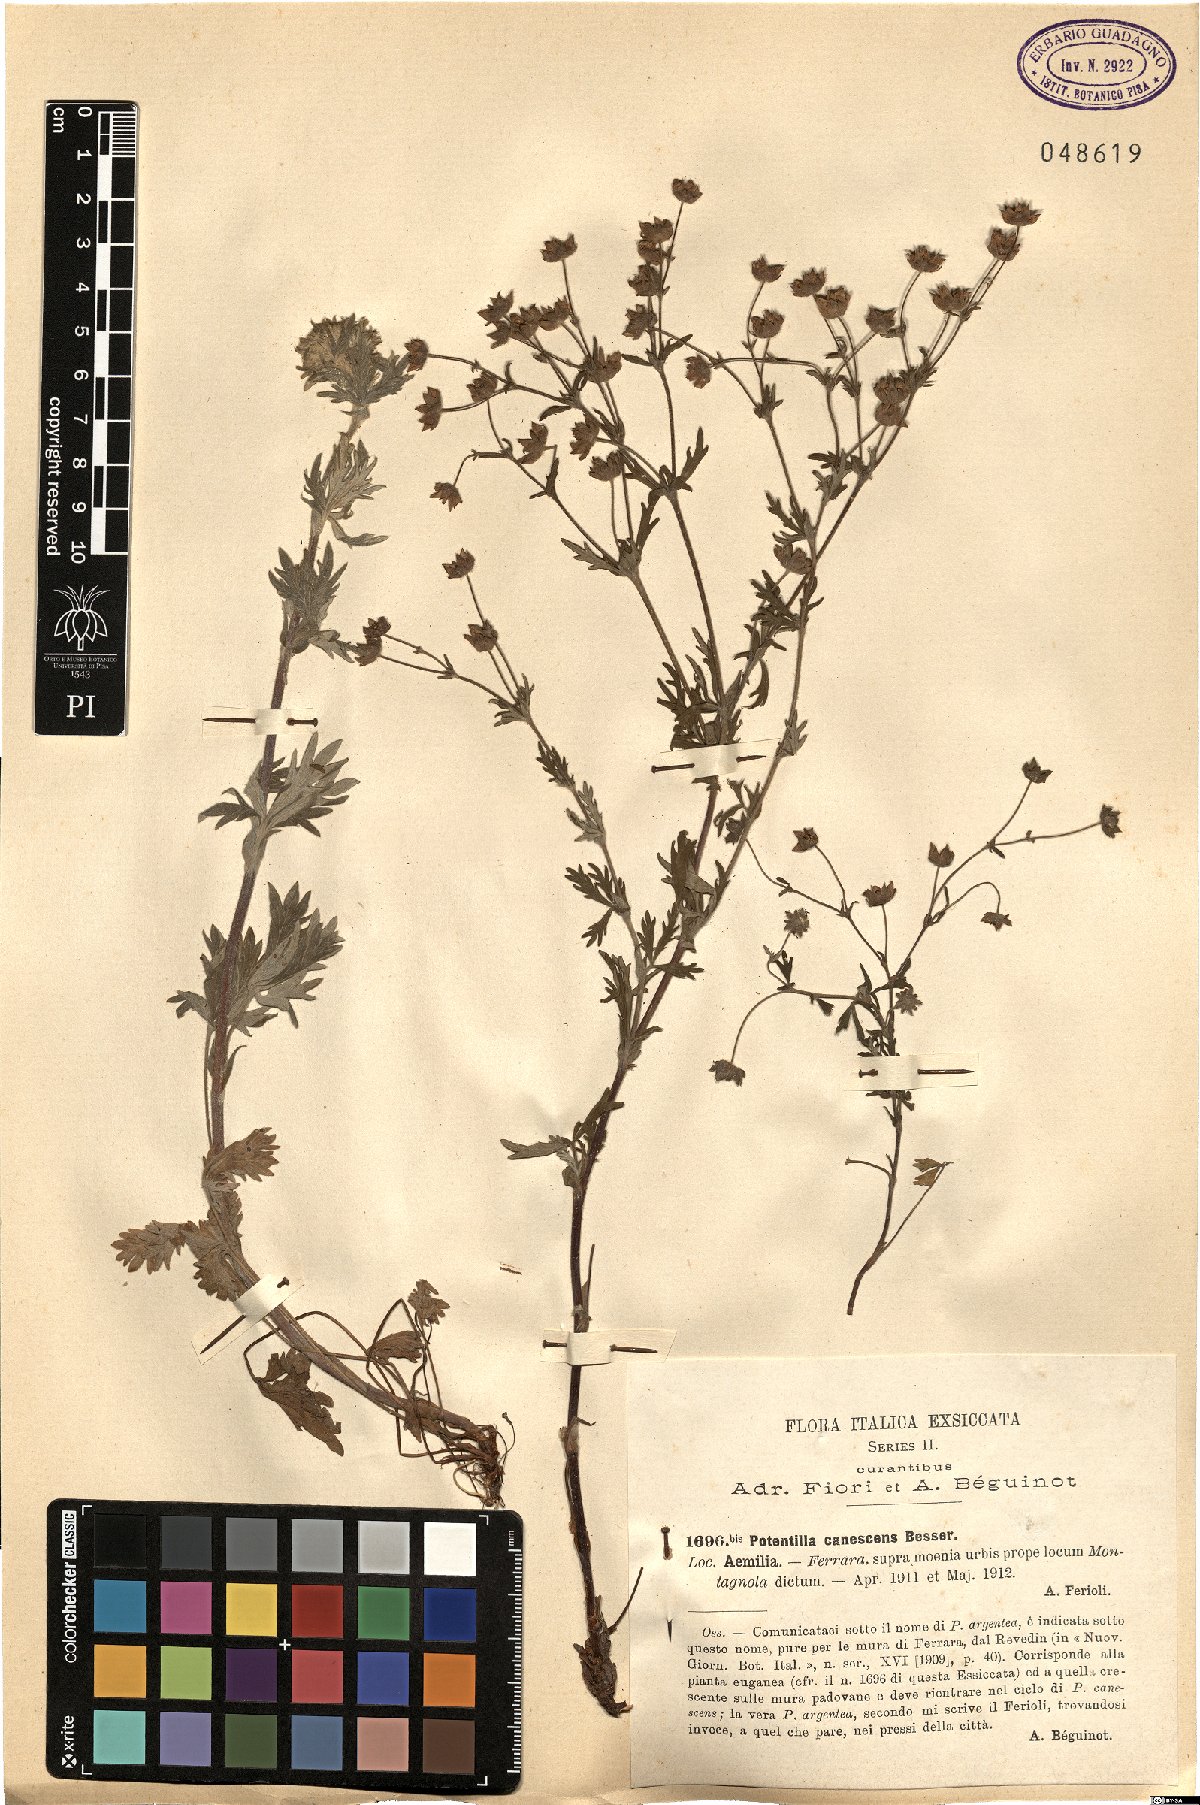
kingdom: Plantae
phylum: Tracheophyta
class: Magnoliopsida
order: Rosales
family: Rosaceae
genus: Potentilla
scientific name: Potentilla inclinata
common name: Grey cinquefoil
